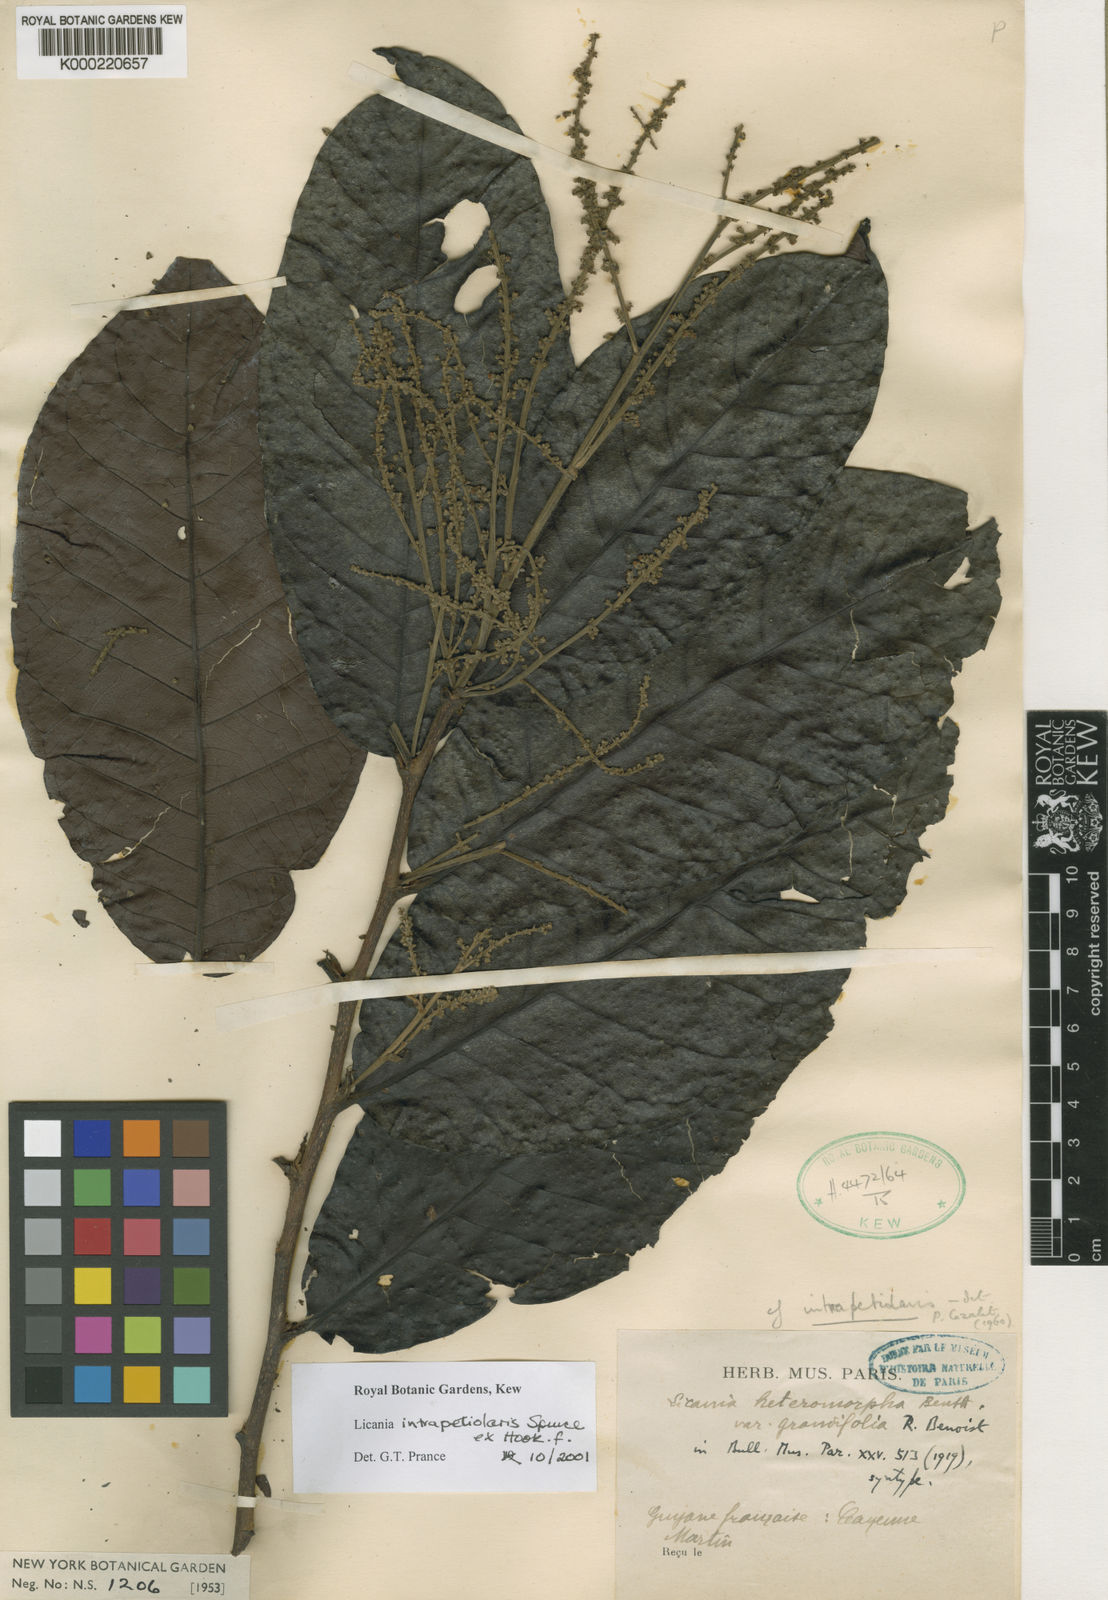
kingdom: Plantae
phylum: Tracheophyta
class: Magnoliopsida
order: Malpighiales
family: Chrysobalanaceae
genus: Hymenopus
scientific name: Hymenopus intrapetiolaris
